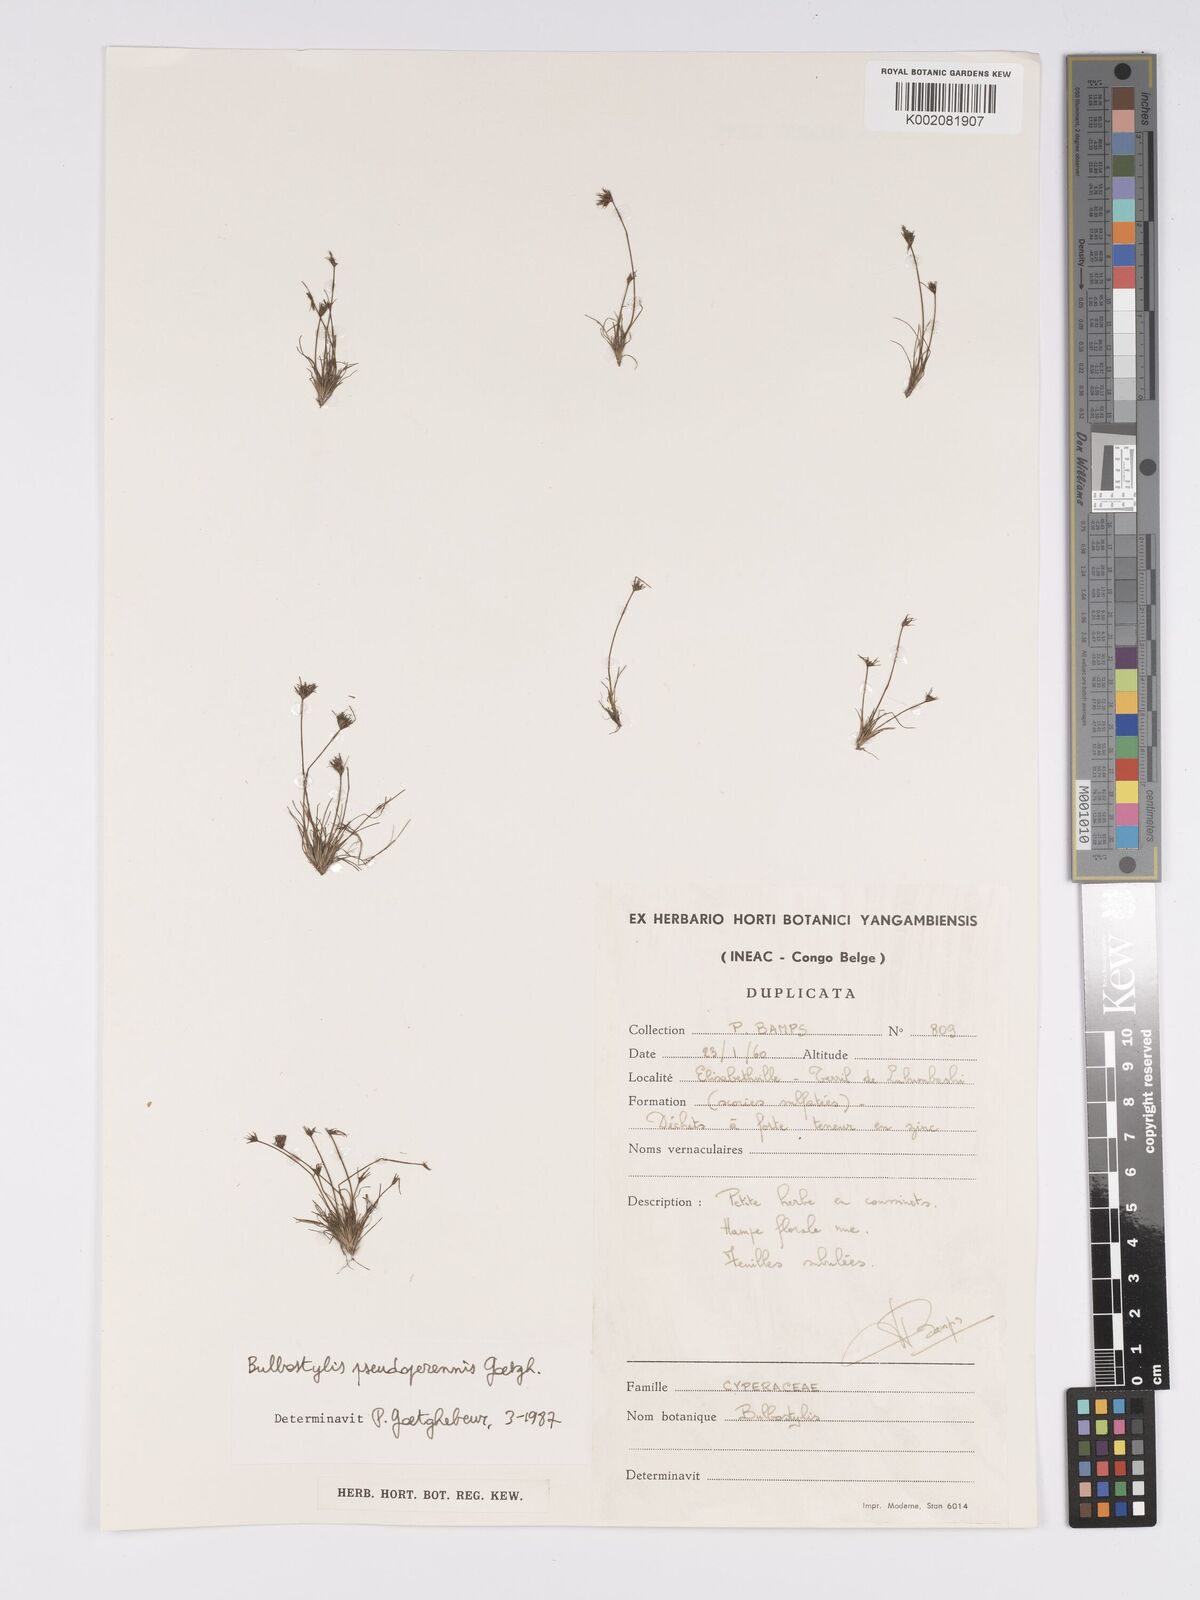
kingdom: Plantae
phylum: Tracheophyta
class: Liliopsida
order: Poales
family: Cyperaceae
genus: Bulbostylis
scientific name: Bulbostylis abbreviata
